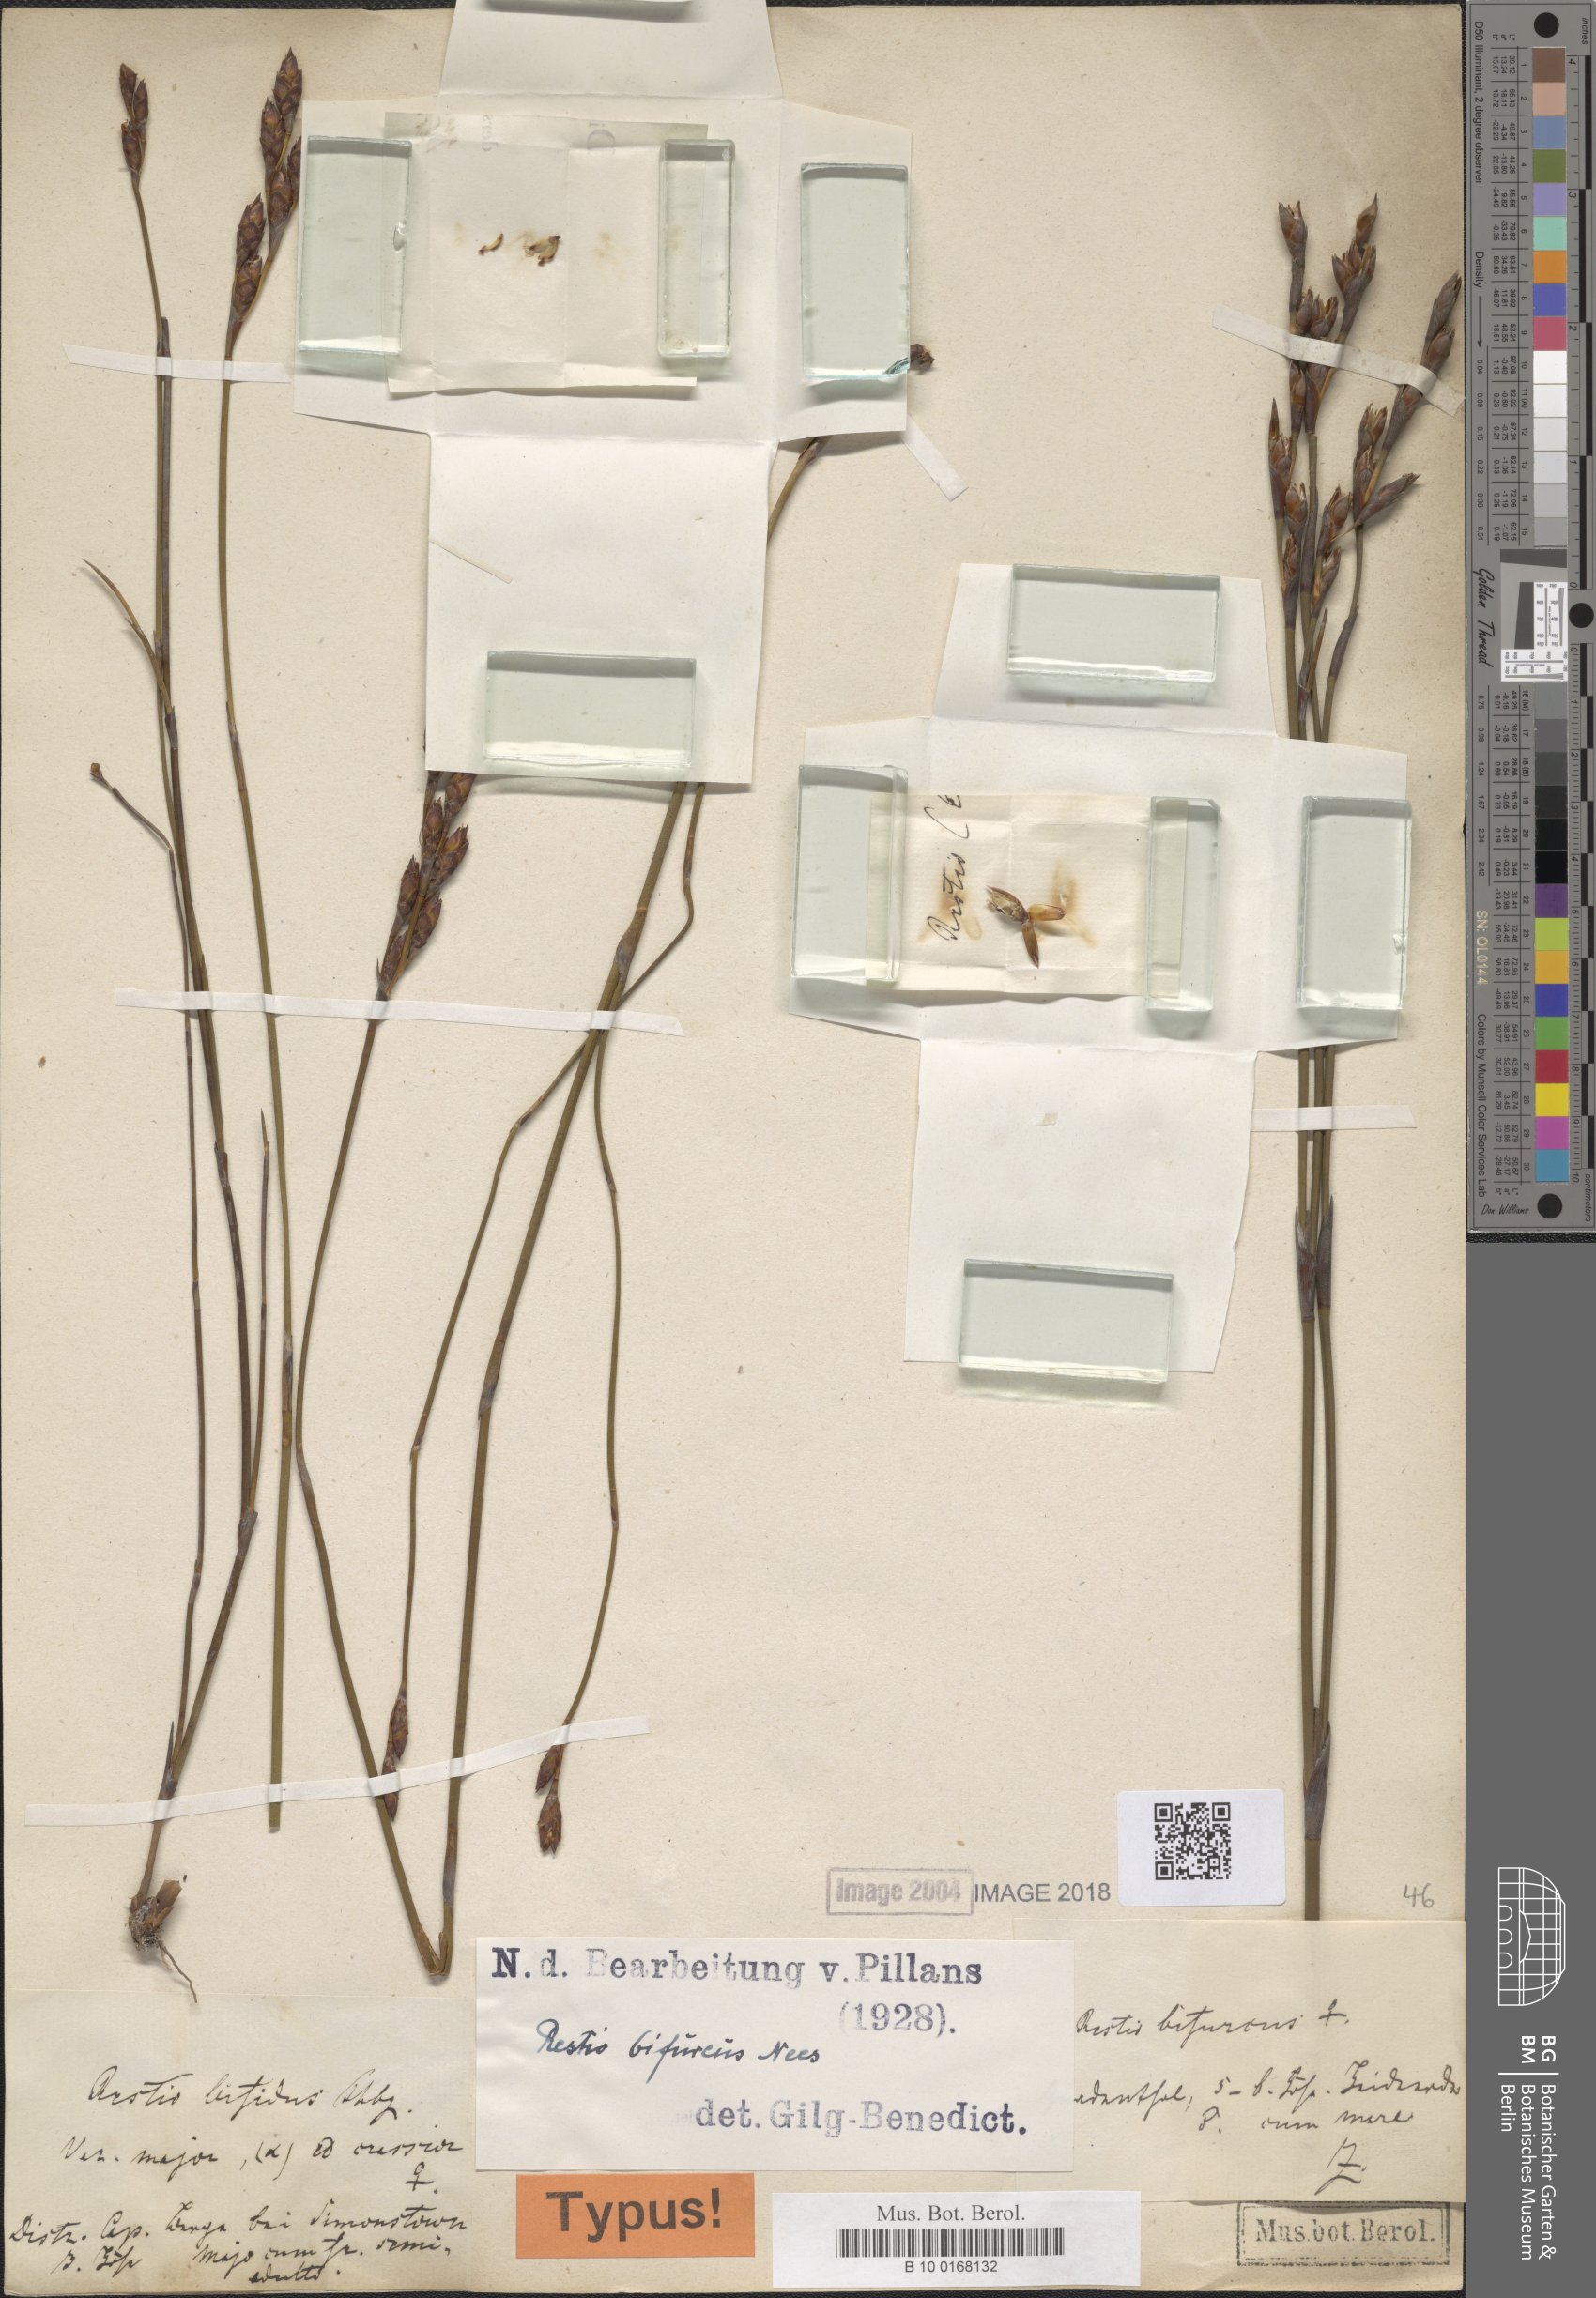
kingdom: Plantae
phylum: Tracheophyta
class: Liliopsida
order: Poales
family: Restionaceae
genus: Restio
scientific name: Restio bifurcus
